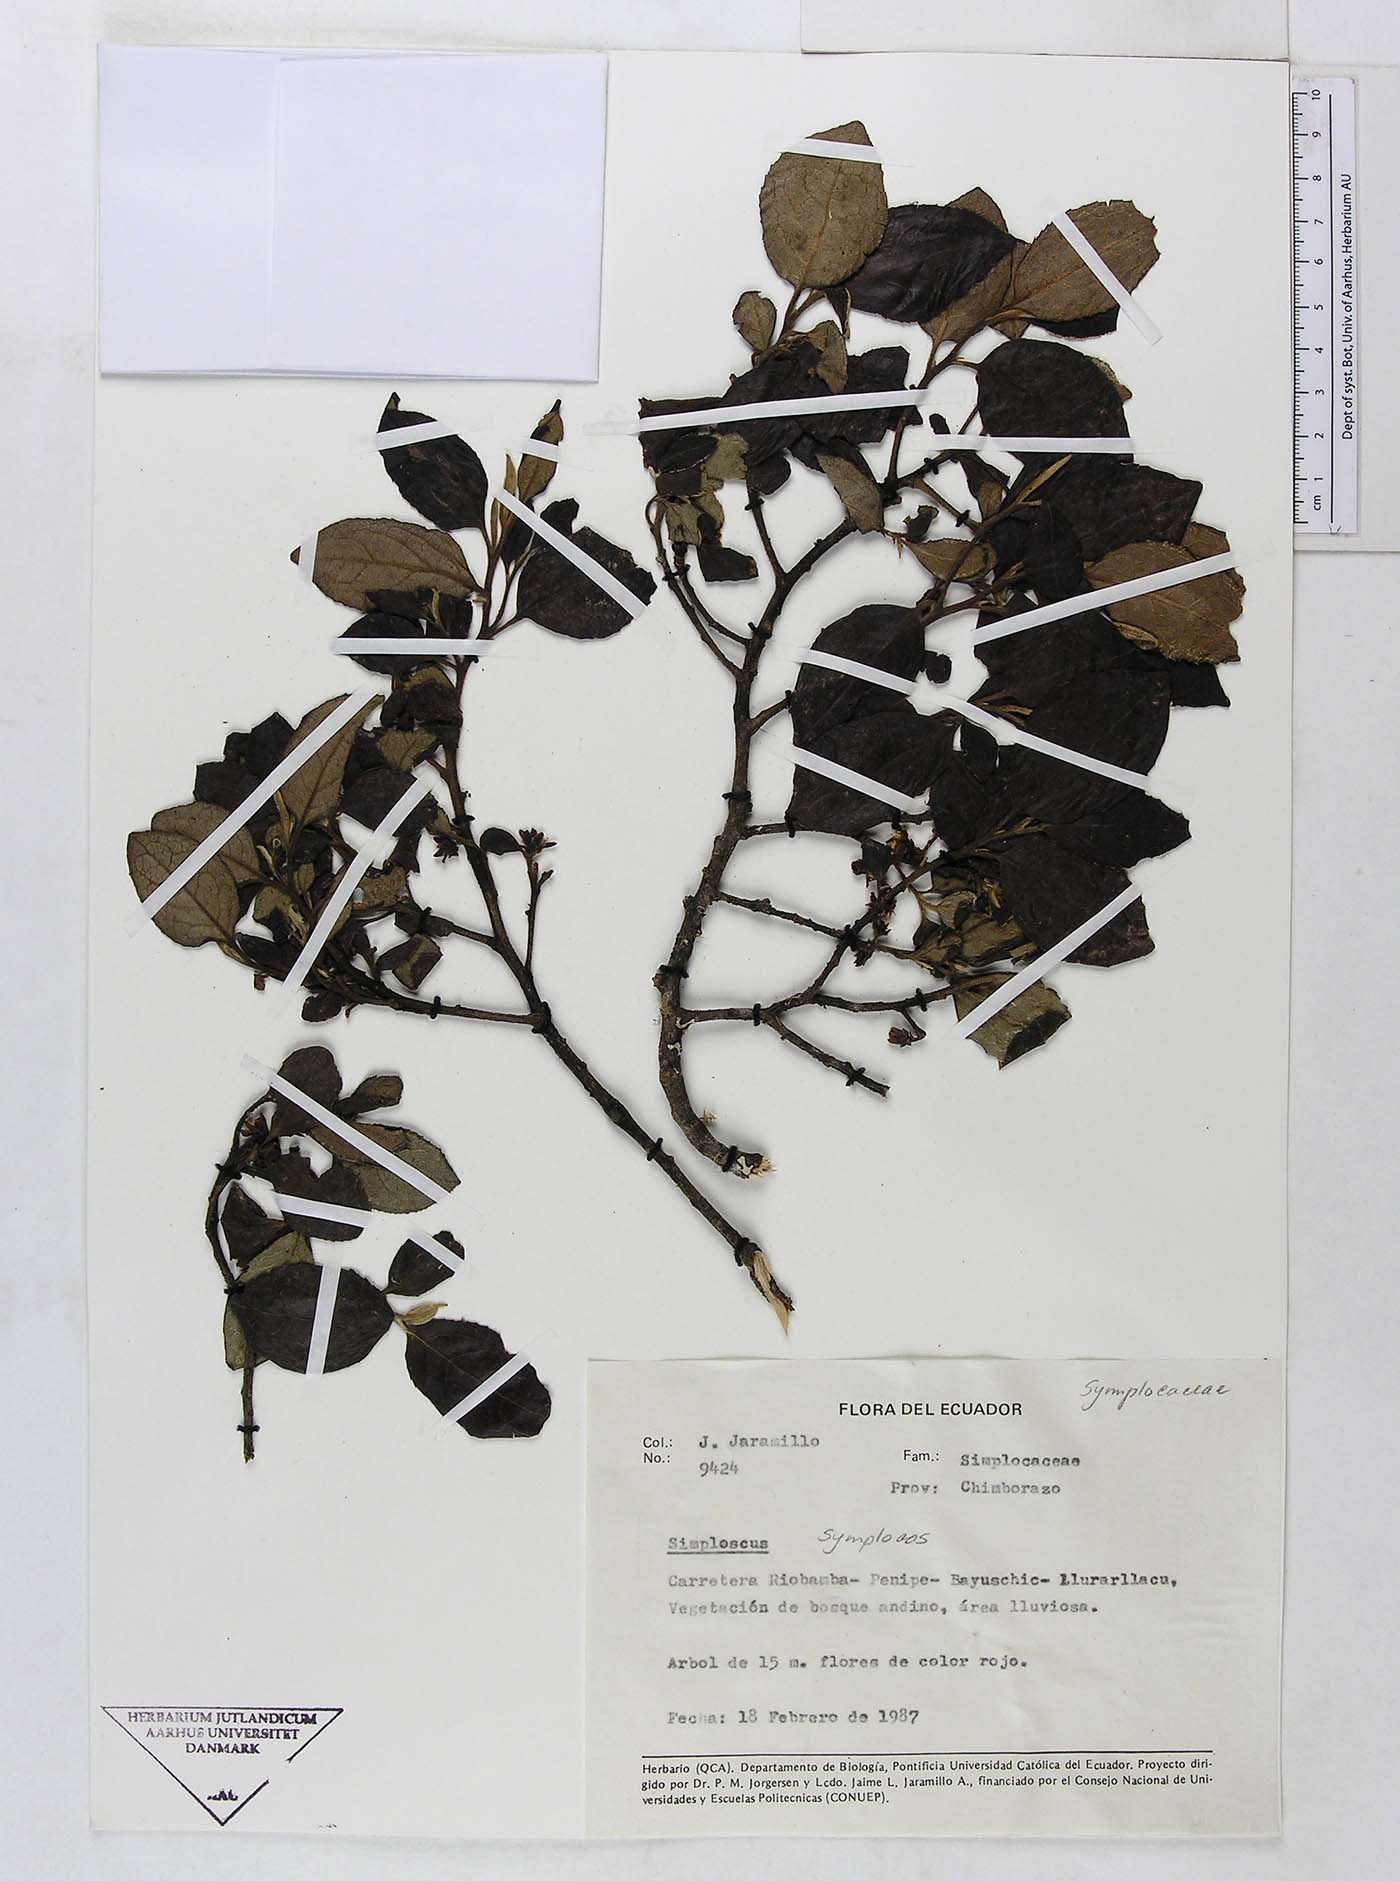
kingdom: Plantae
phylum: Tracheophyta
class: Magnoliopsida
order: Ericales
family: Symplocaceae
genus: Symplocos
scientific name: Symplocos quitensis
